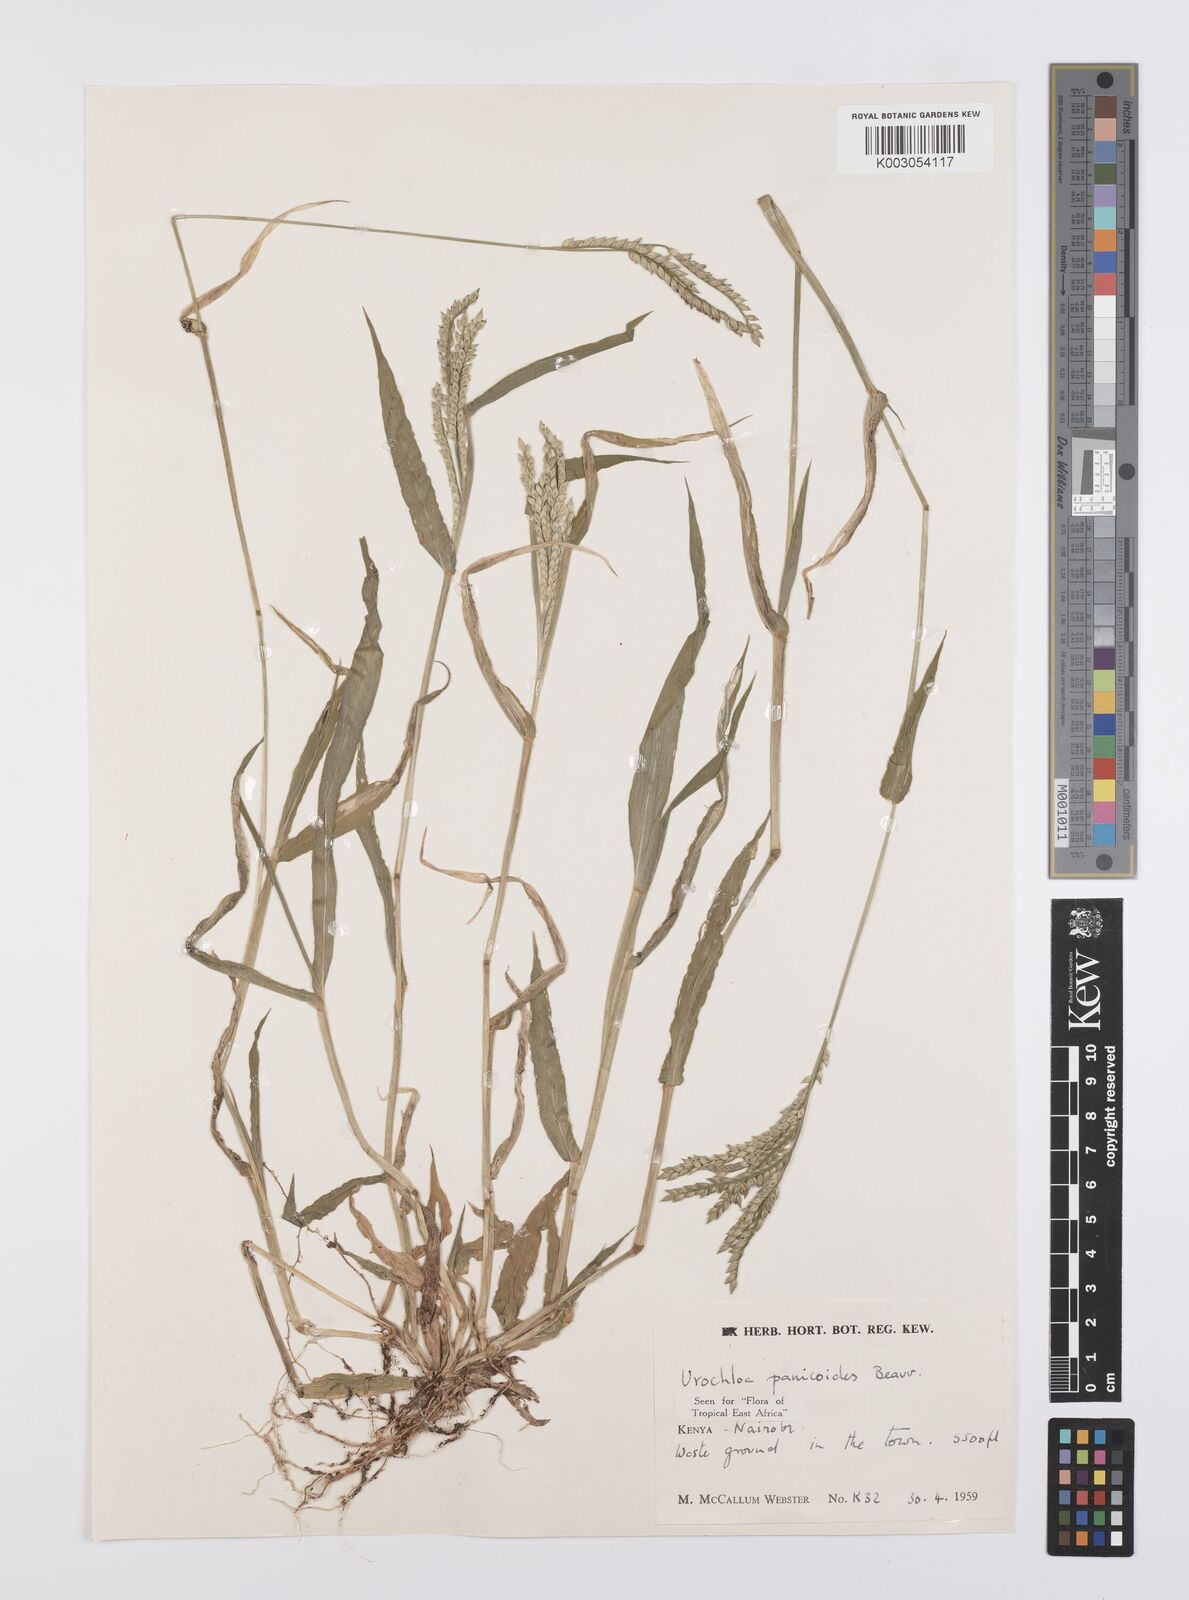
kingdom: Plantae
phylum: Tracheophyta
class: Liliopsida
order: Poales
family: Poaceae
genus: Urochloa
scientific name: Urochloa panicoides
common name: Sharp-flowered signal-grass
